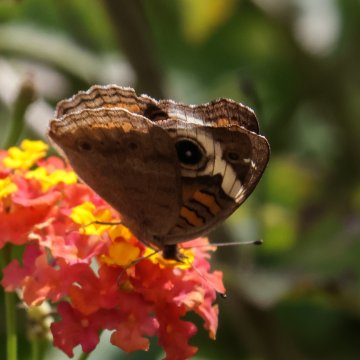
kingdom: Animalia
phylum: Arthropoda
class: Insecta
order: Lepidoptera
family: Nymphalidae
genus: Junonia
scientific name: Junonia coenia
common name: Common Buckeye
